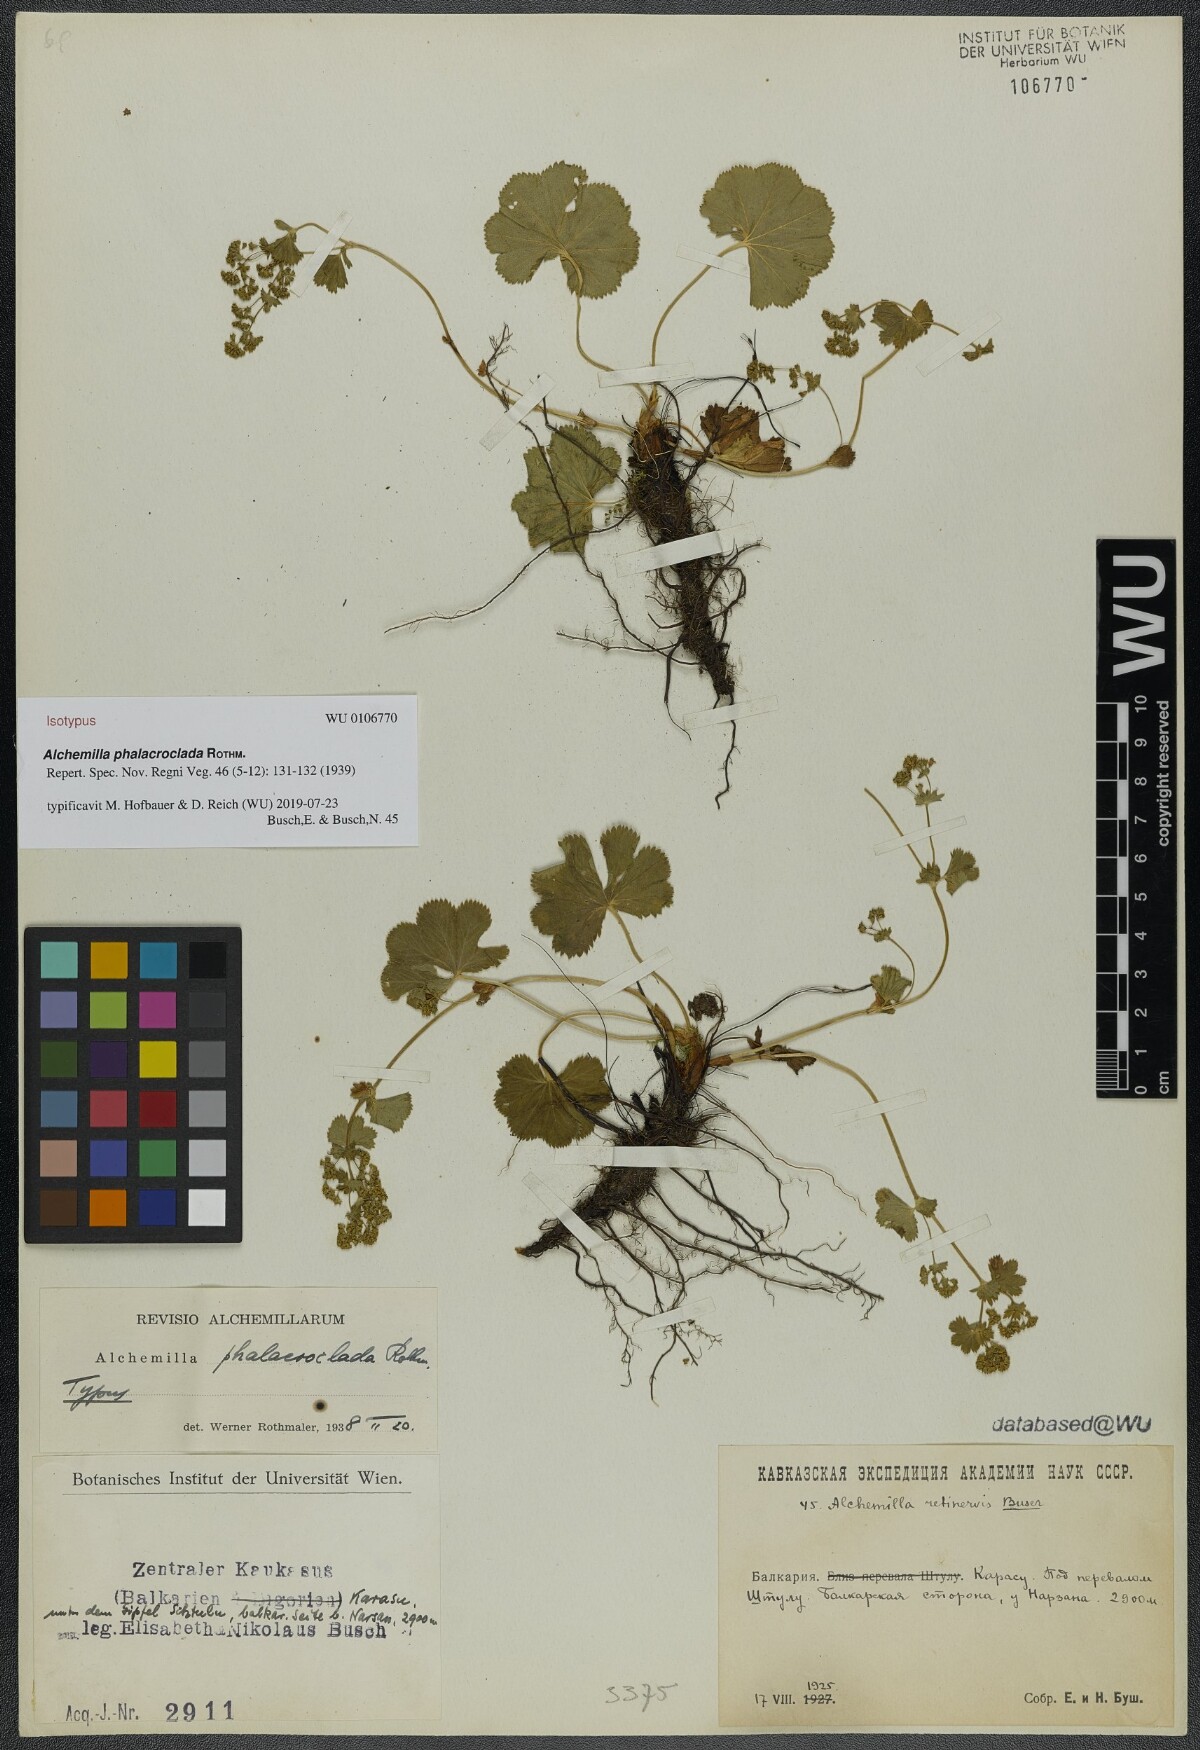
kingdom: Plantae
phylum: Tracheophyta
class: Magnoliopsida
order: Rosales
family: Rosaceae
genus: Alchemilla
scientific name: Alchemilla phalacroclada
